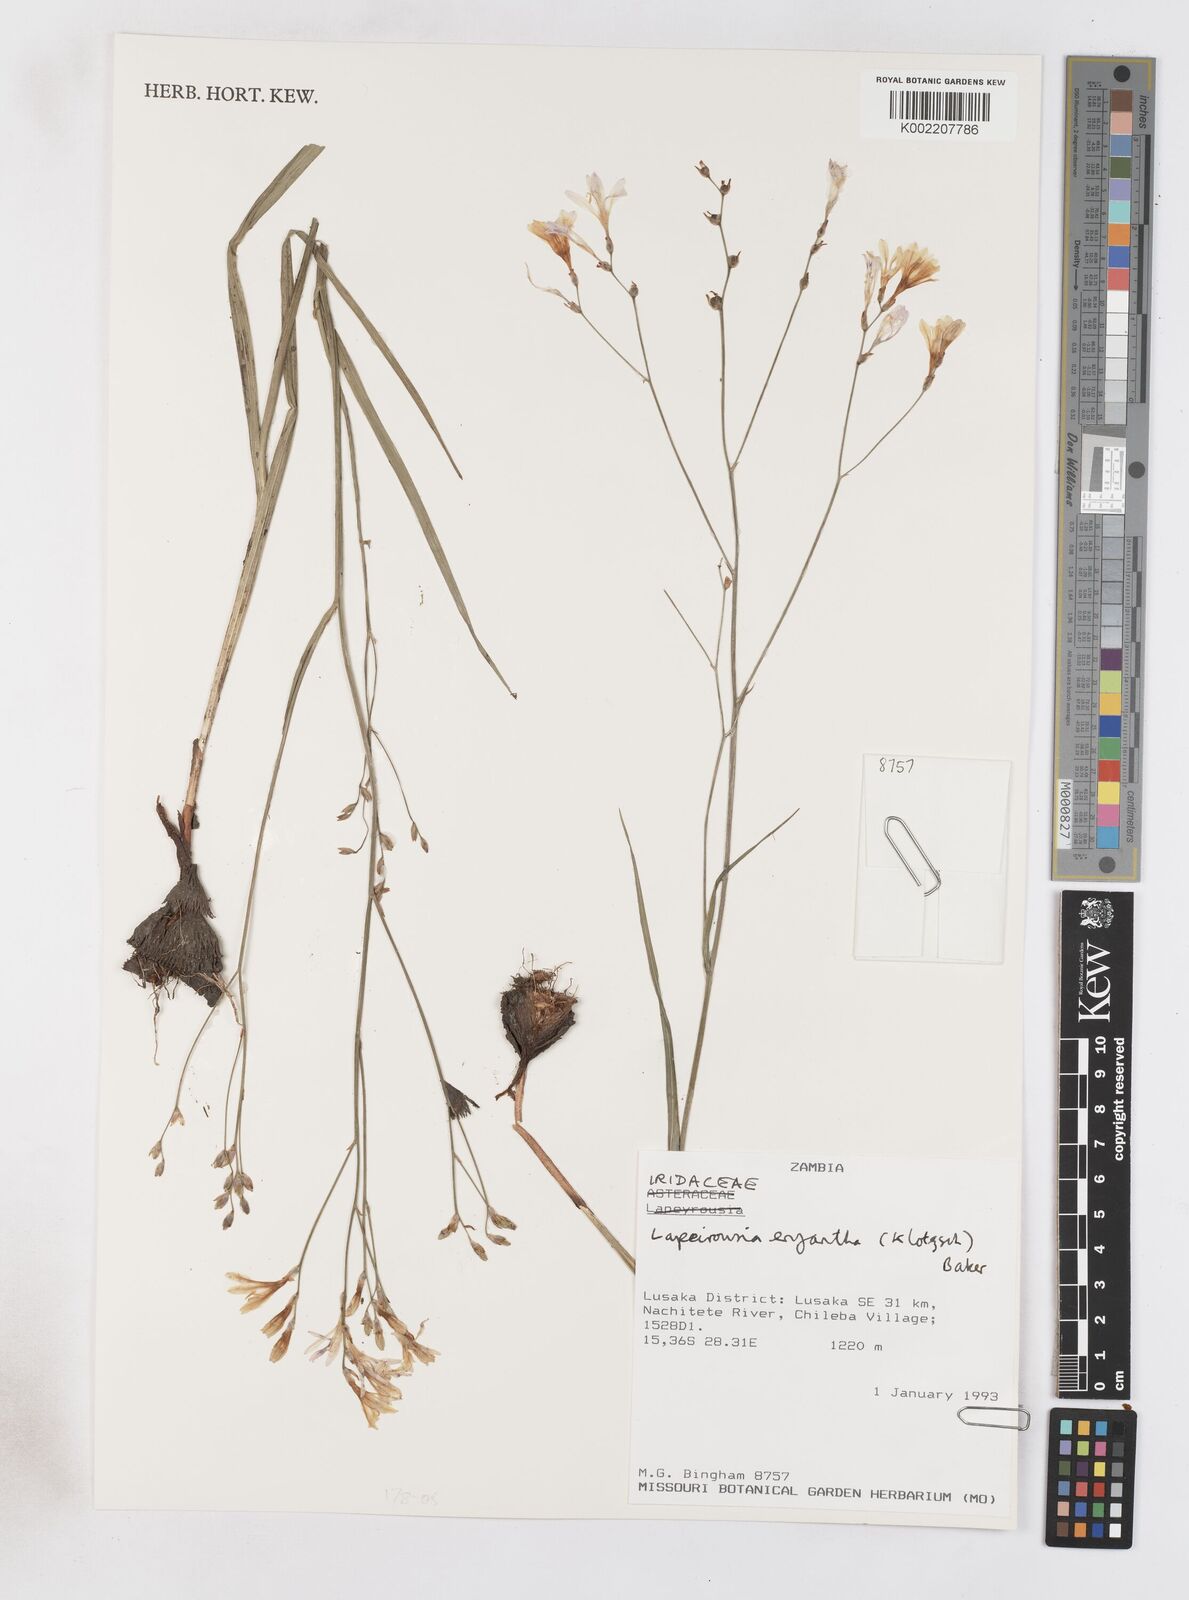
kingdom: Plantae
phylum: Tracheophyta
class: Liliopsida
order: Asparagales
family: Iridaceae
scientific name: Iridaceae
